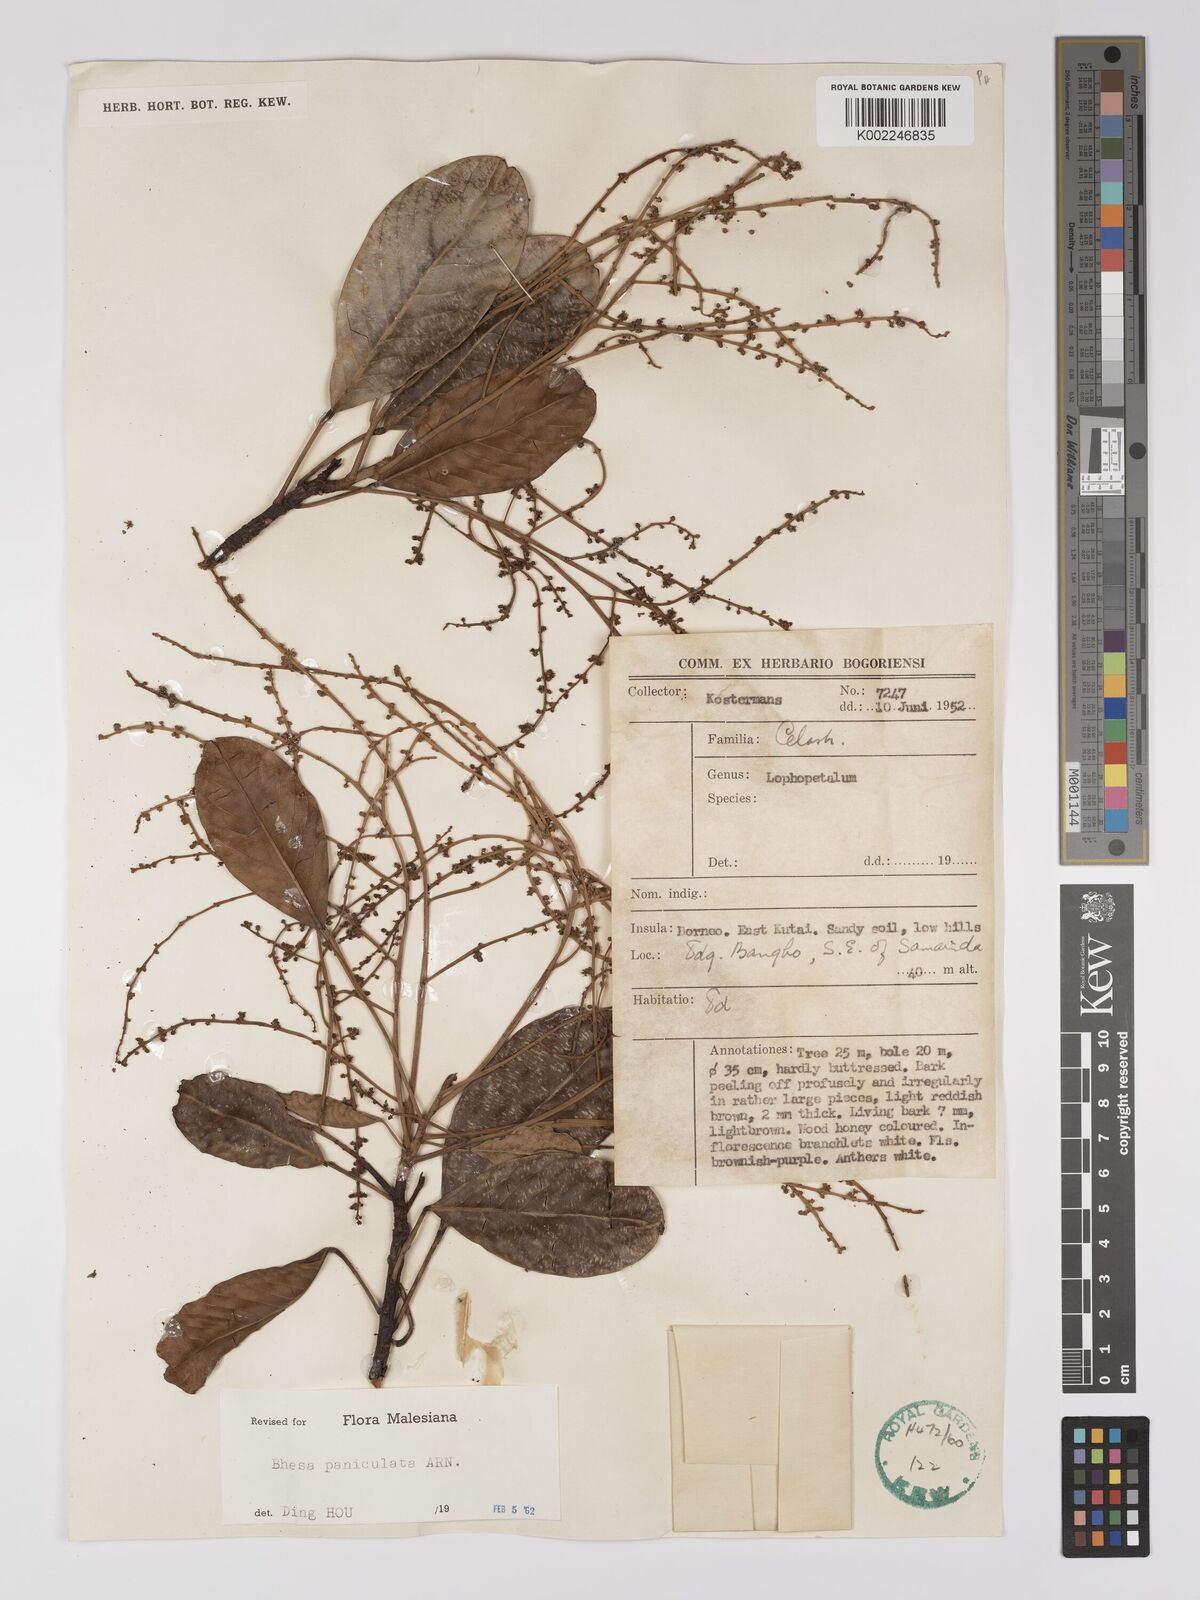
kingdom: Plantae
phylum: Tracheophyta
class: Magnoliopsida
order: Malpighiales
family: Centroplacaceae
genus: Bhesa
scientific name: Bhesa paniculata
